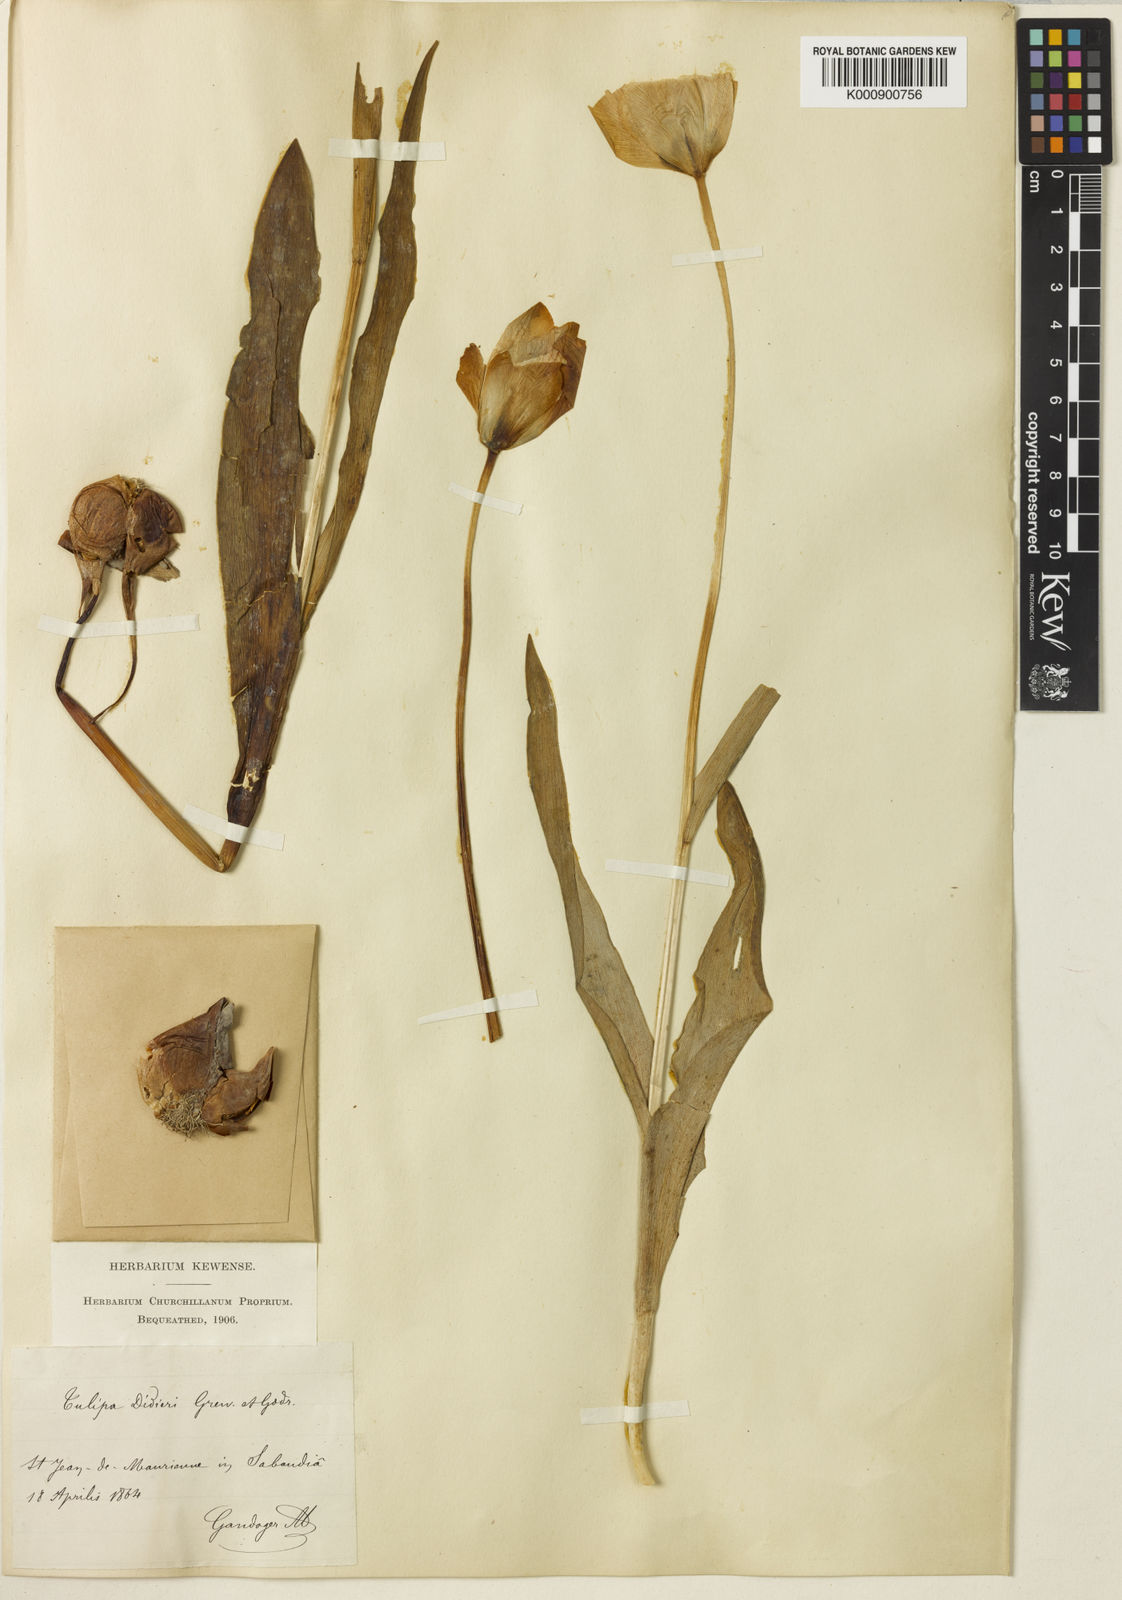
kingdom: Plantae
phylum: Tracheophyta
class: Liliopsida
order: Liliales
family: Liliaceae
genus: Tulipa
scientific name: Tulipa gesneriana
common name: Garden tulip
